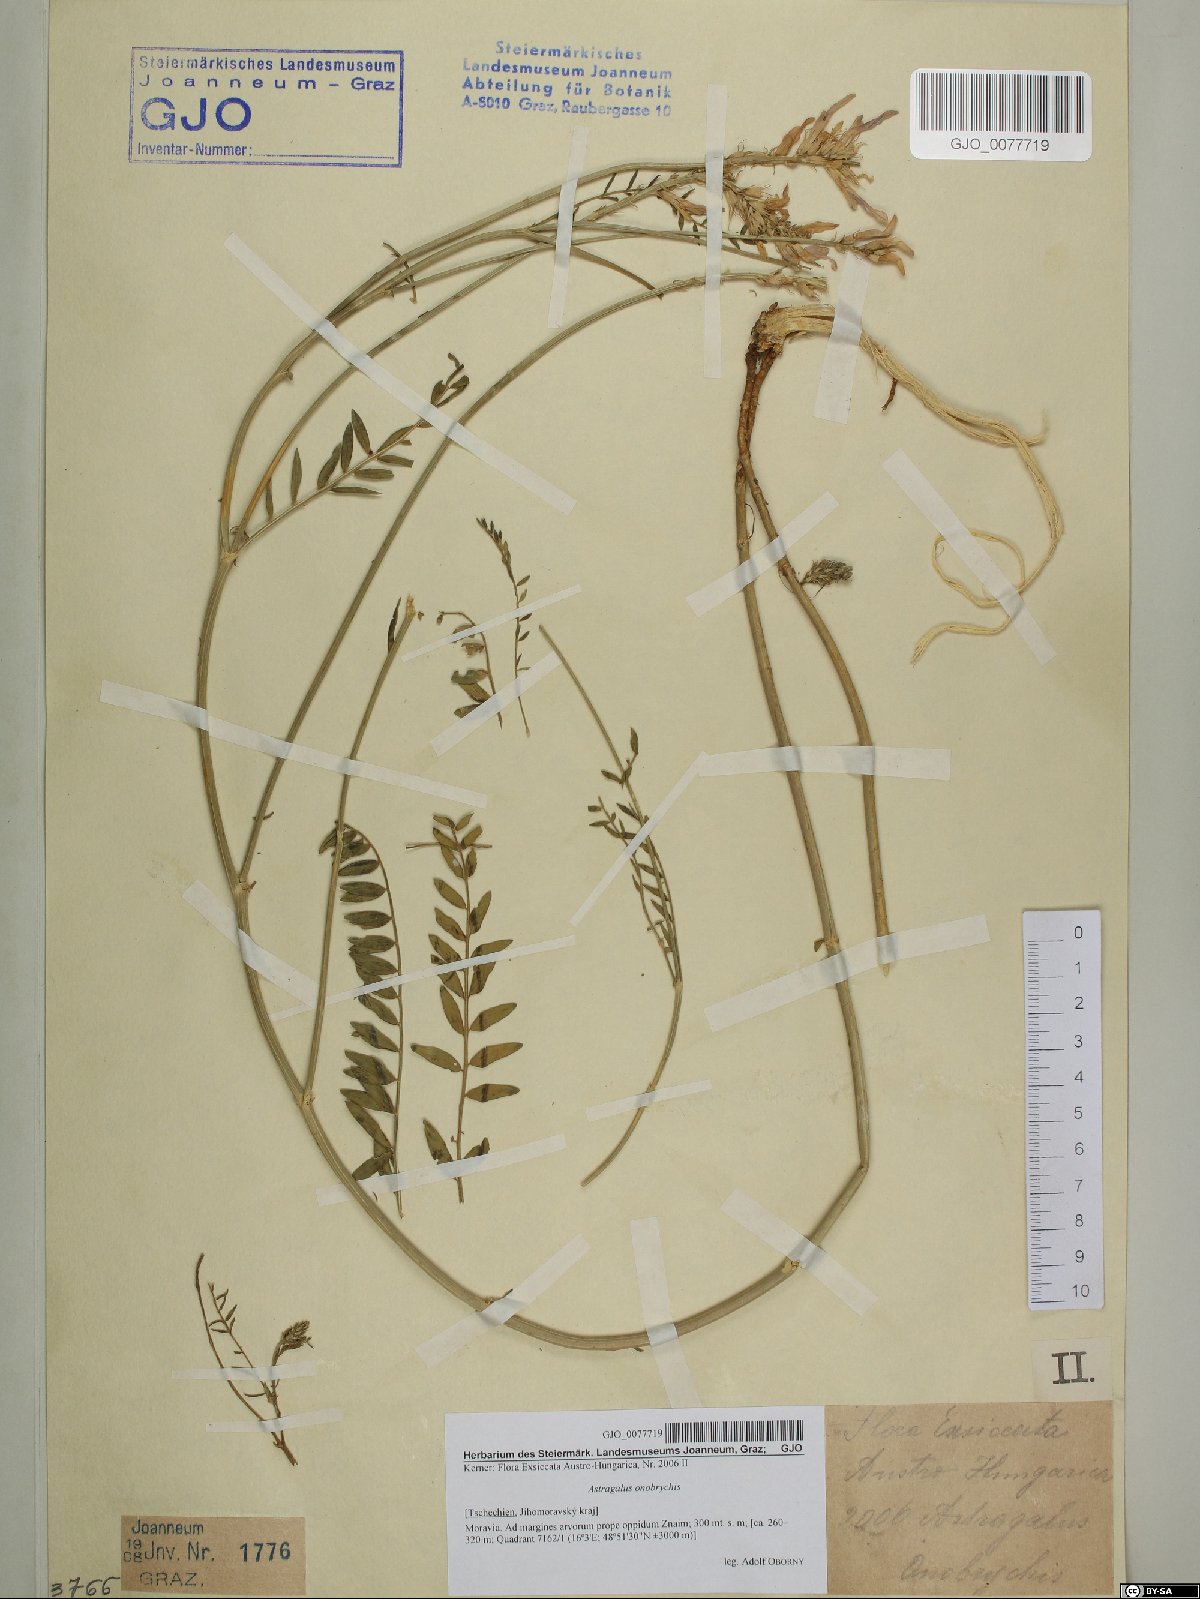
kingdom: Plantae
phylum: Tracheophyta
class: Magnoliopsida
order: Fabales
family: Fabaceae
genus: Astragalus
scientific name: Astragalus onobrychis
